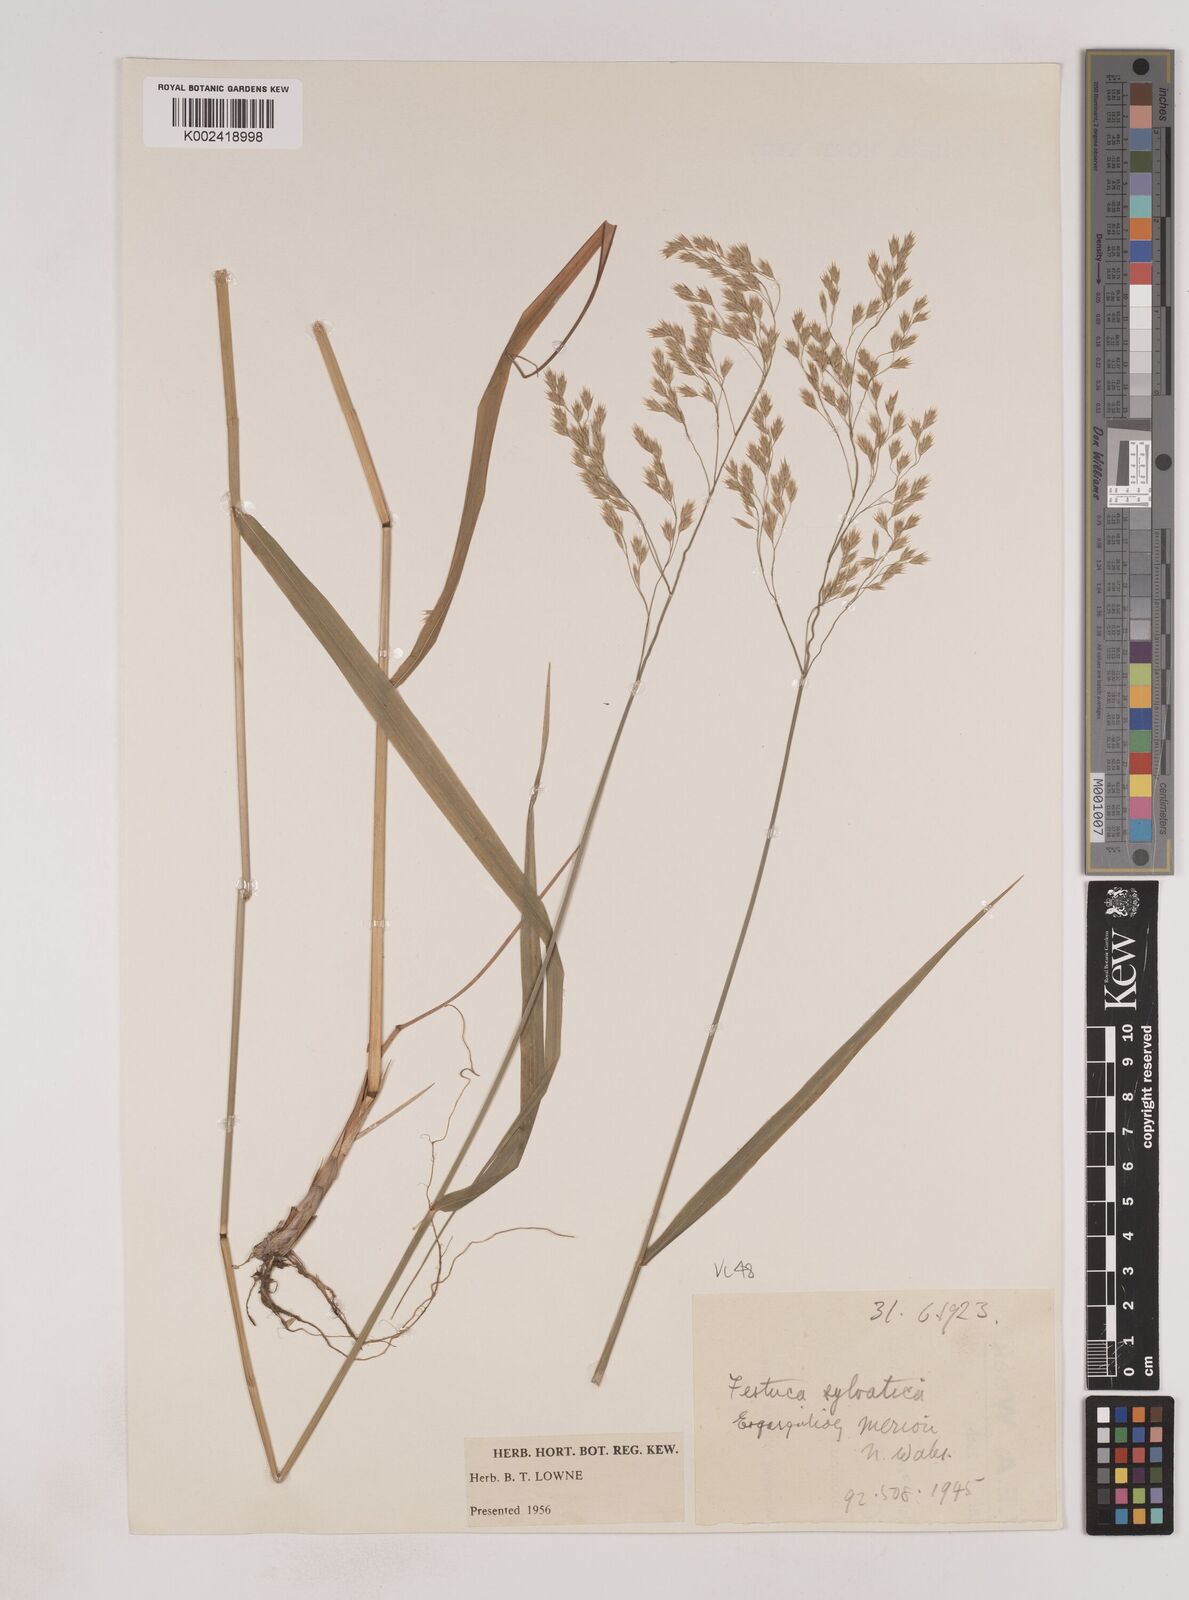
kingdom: Plantae
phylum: Tracheophyta
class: Liliopsida
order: Poales
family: Poaceae
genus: Festuca
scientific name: Festuca drymeja
